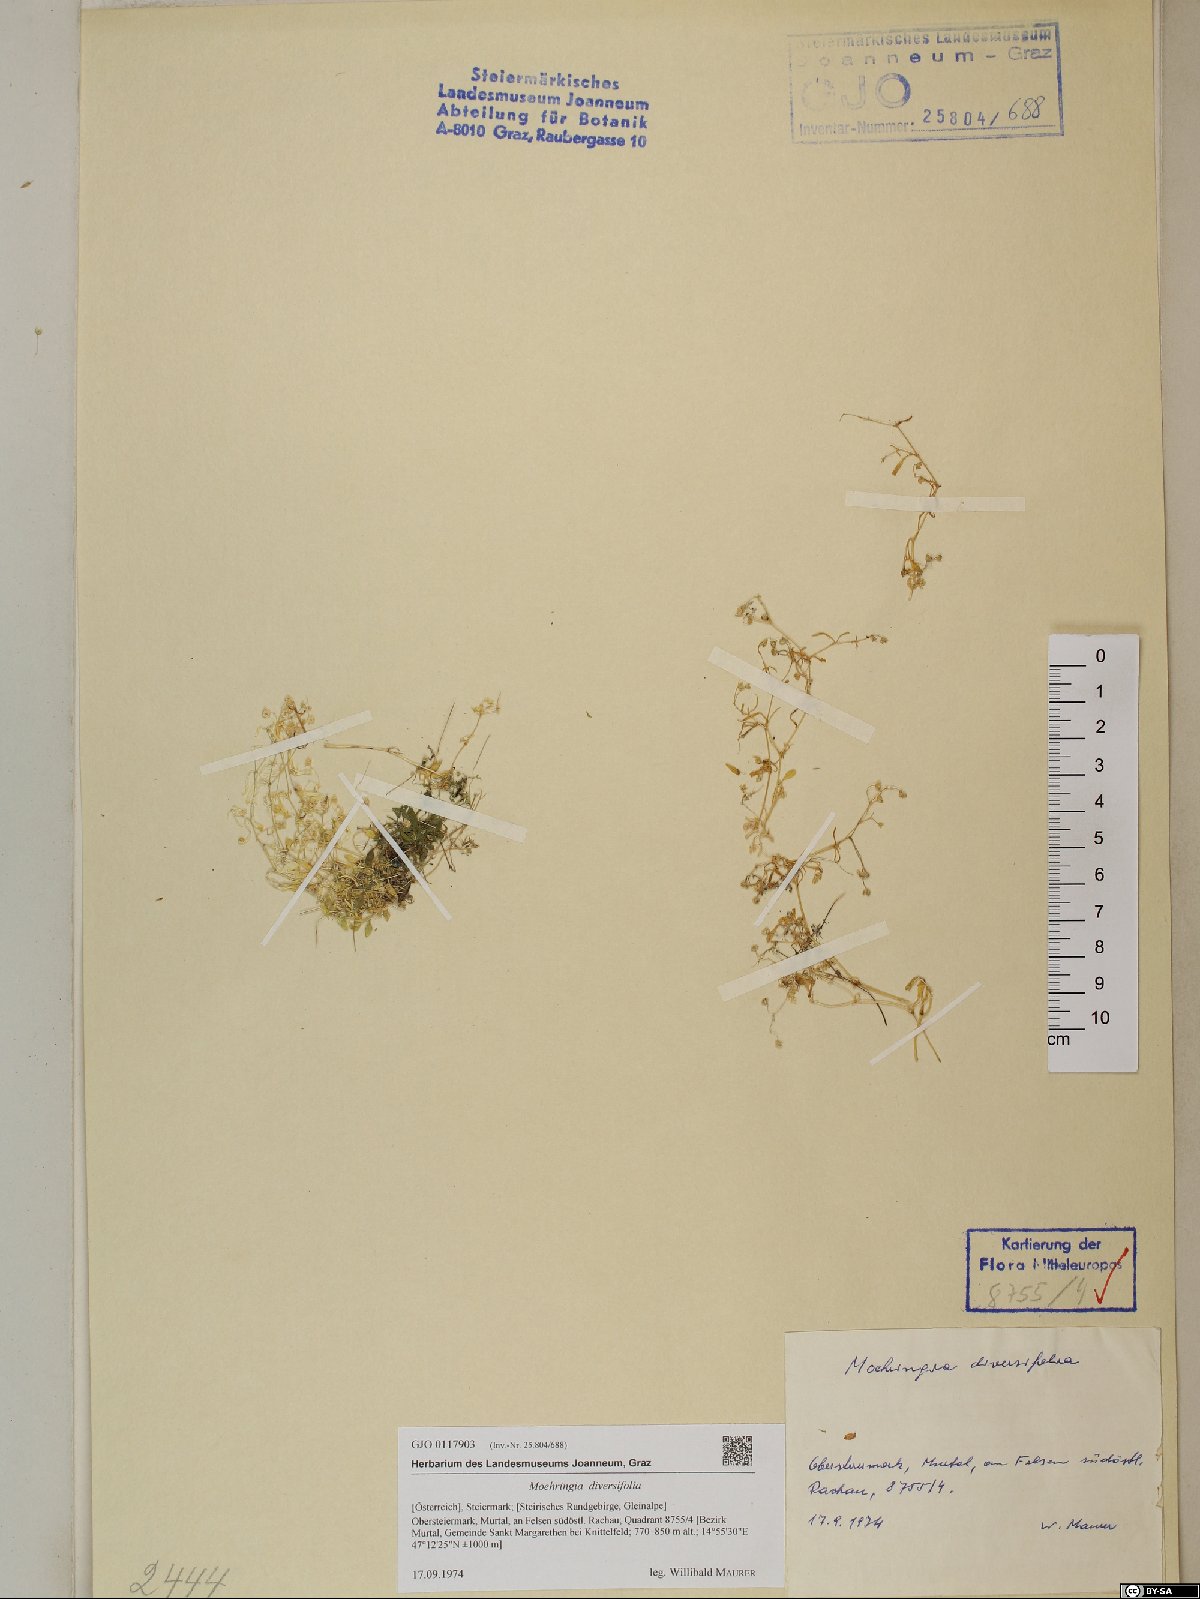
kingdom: Plantae
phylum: Tracheophyta
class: Magnoliopsida
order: Caryophyllales
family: Caryophyllaceae
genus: Moehringia
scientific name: Moehringia diversifolia
